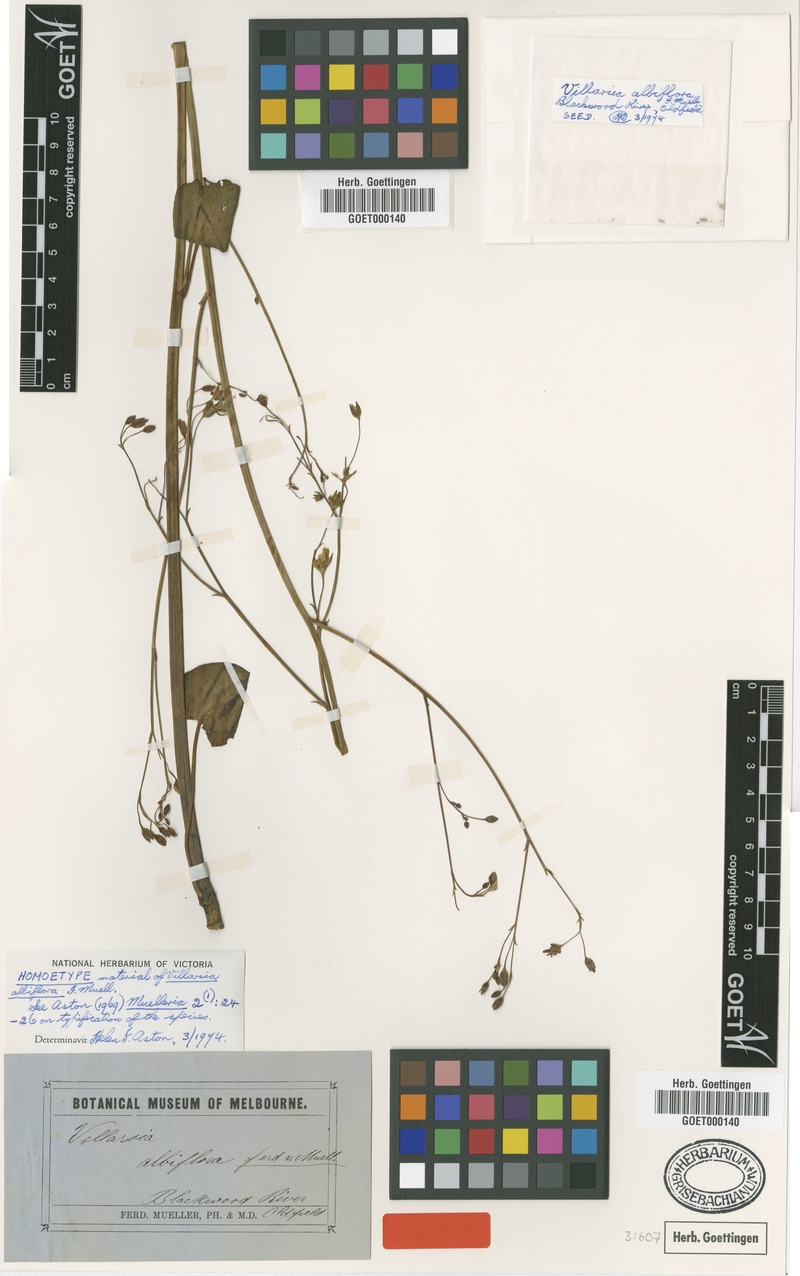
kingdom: Plantae
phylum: Tracheophyta
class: Magnoliopsida
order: Asterales
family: Menyanthaceae
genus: Ornduffia
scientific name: Ornduffia albiflora
